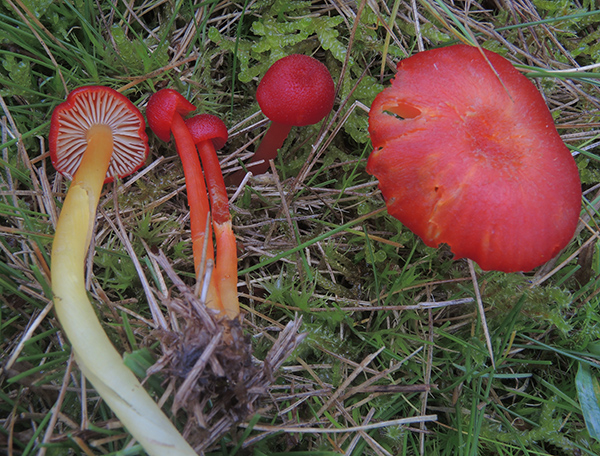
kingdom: Fungi
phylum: Basidiomycota
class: Agaricomycetes
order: Agaricales
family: Hygrophoraceae
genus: Hygrocybe
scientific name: Hygrocybe helobia
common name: hvidløgs-vokshat
